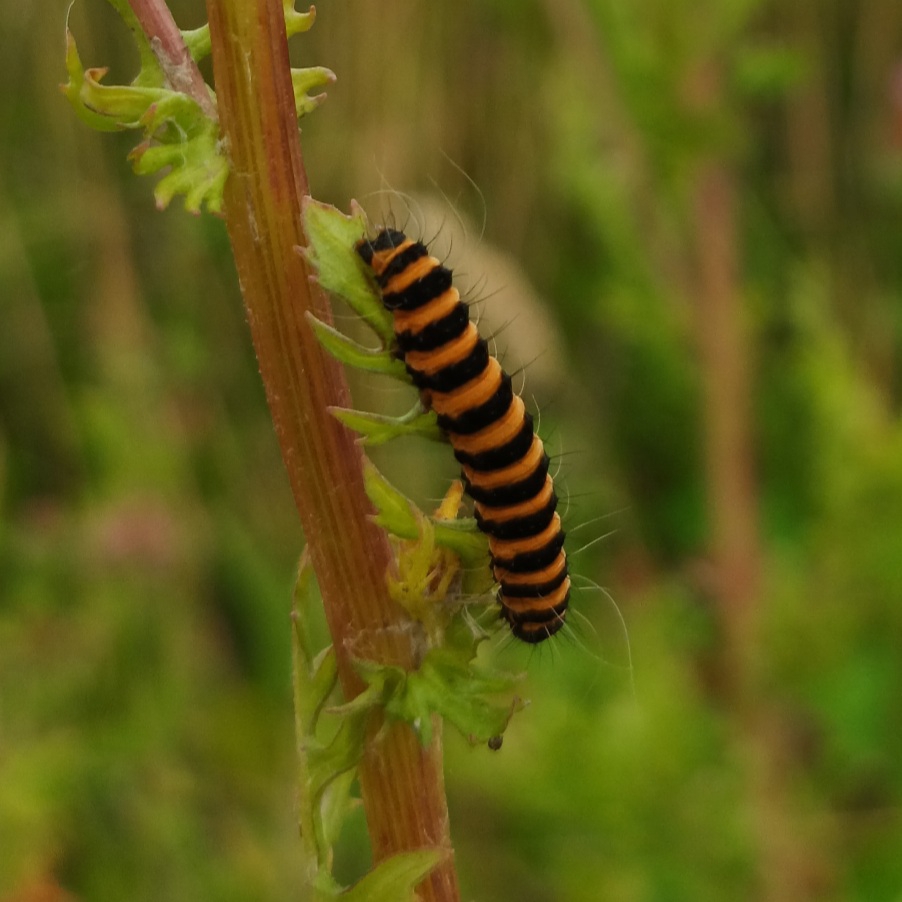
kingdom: Animalia
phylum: Arthropoda
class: Insecta
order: Lepidoptera
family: Erebidae
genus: Tyria
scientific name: Tyria jacobaeae
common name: Blodplet
